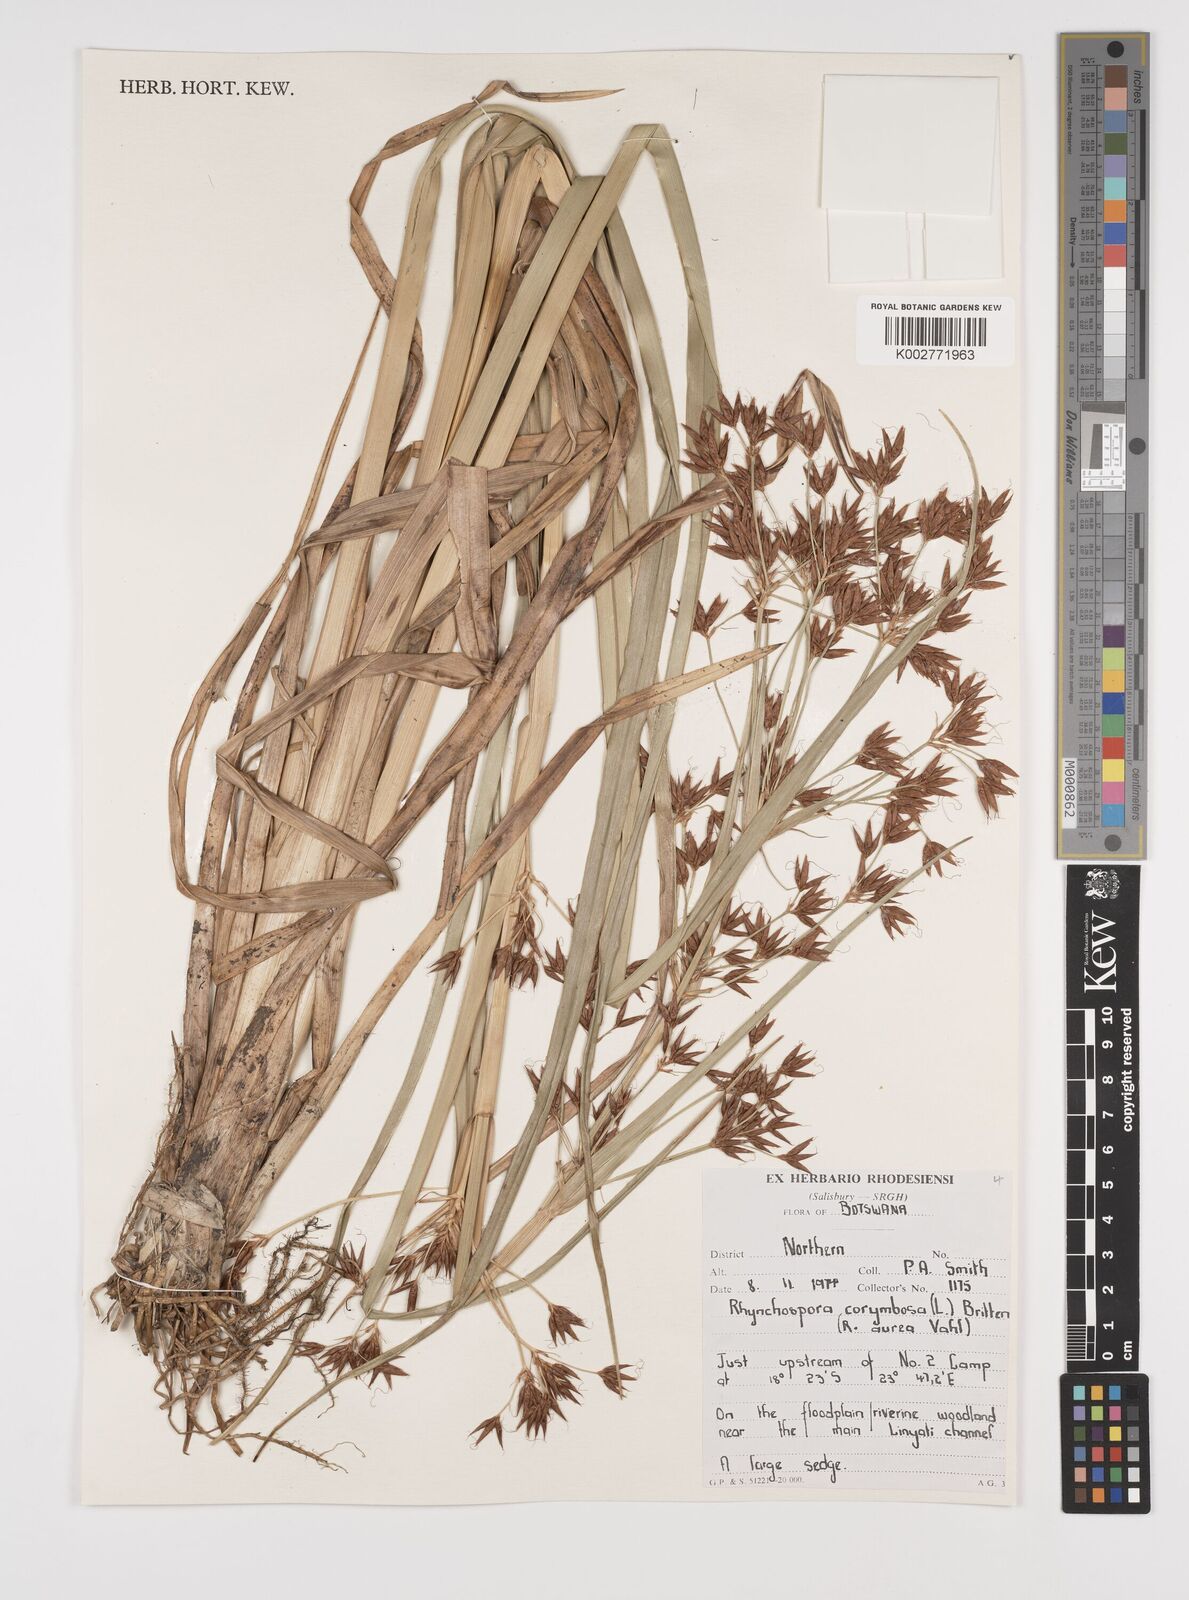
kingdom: Plantae
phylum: Tracheophyta
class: Liliopsida
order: Poales
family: Cyperaceae
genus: Rhynchospora
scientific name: Rhynchospora corymbosa
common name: Golden beak sedge
